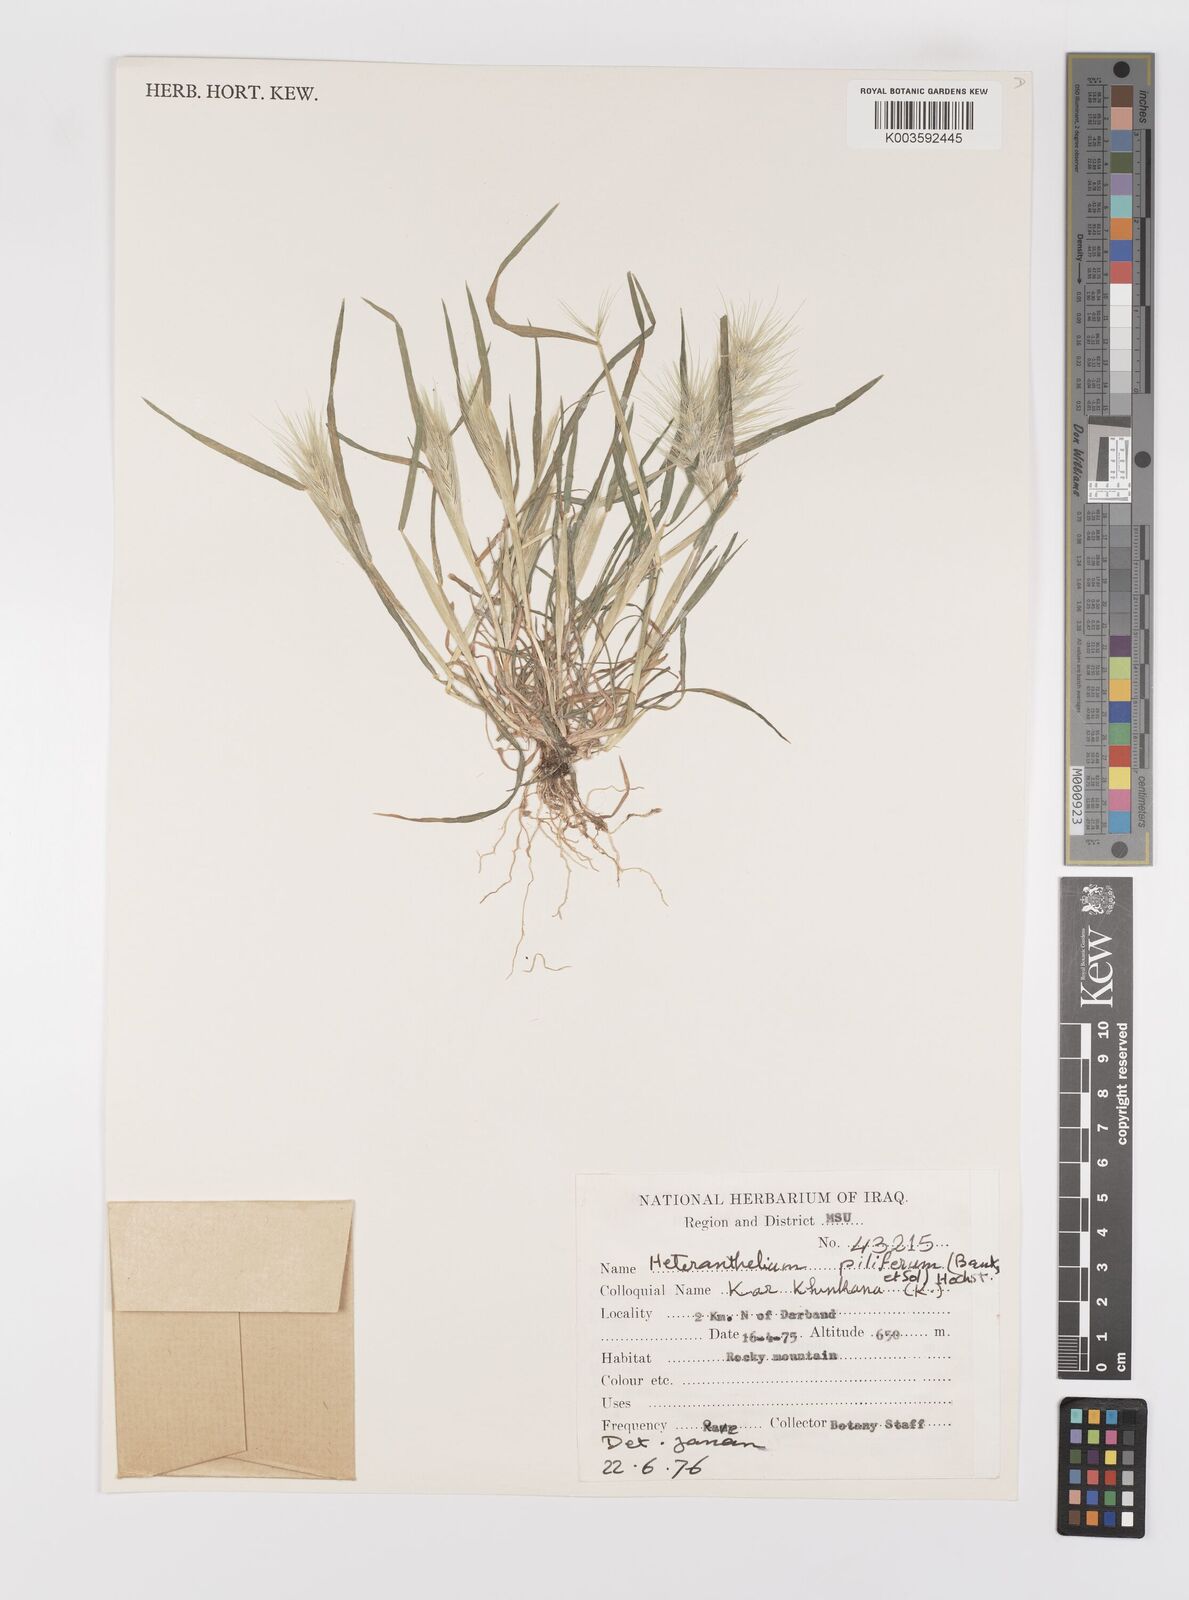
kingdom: Plantae
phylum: Tracheophyta
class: Liliopsida
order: Poales
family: Poaceae
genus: Heteranthelium
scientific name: Heteranthelium piliferum
